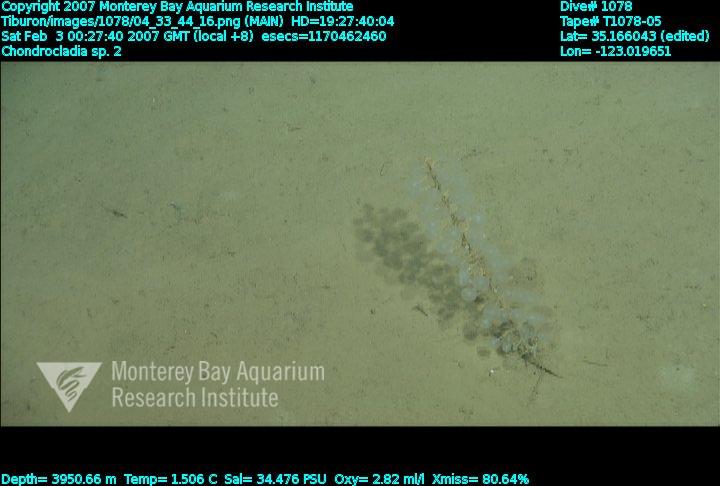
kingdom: Animalia
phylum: Porifera
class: Demospongiae
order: Poecilosclerida
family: Cladorhizidae
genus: Chondrocladia
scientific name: Chondrocladia
